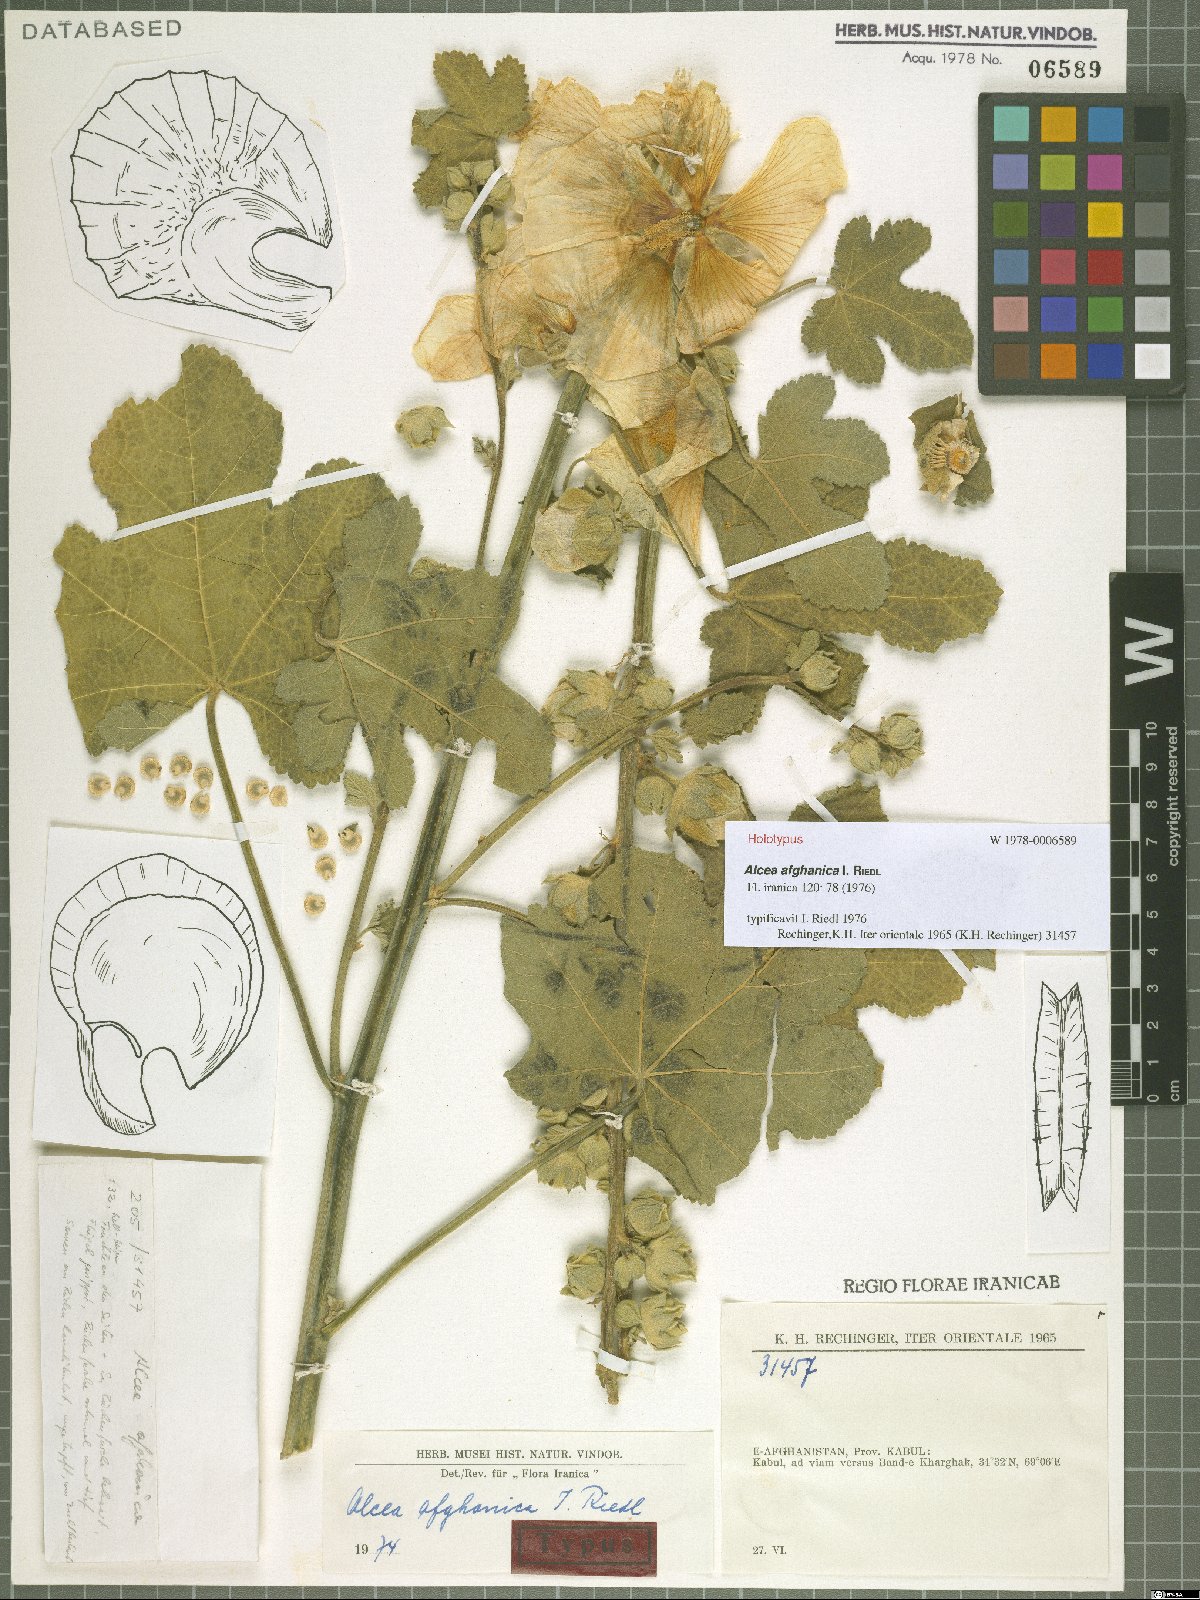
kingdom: Plantae
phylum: Tracheophyta
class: Magnoliopsida
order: Malvales
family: Malvaceae
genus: Alcea
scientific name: Alcea afghanica
